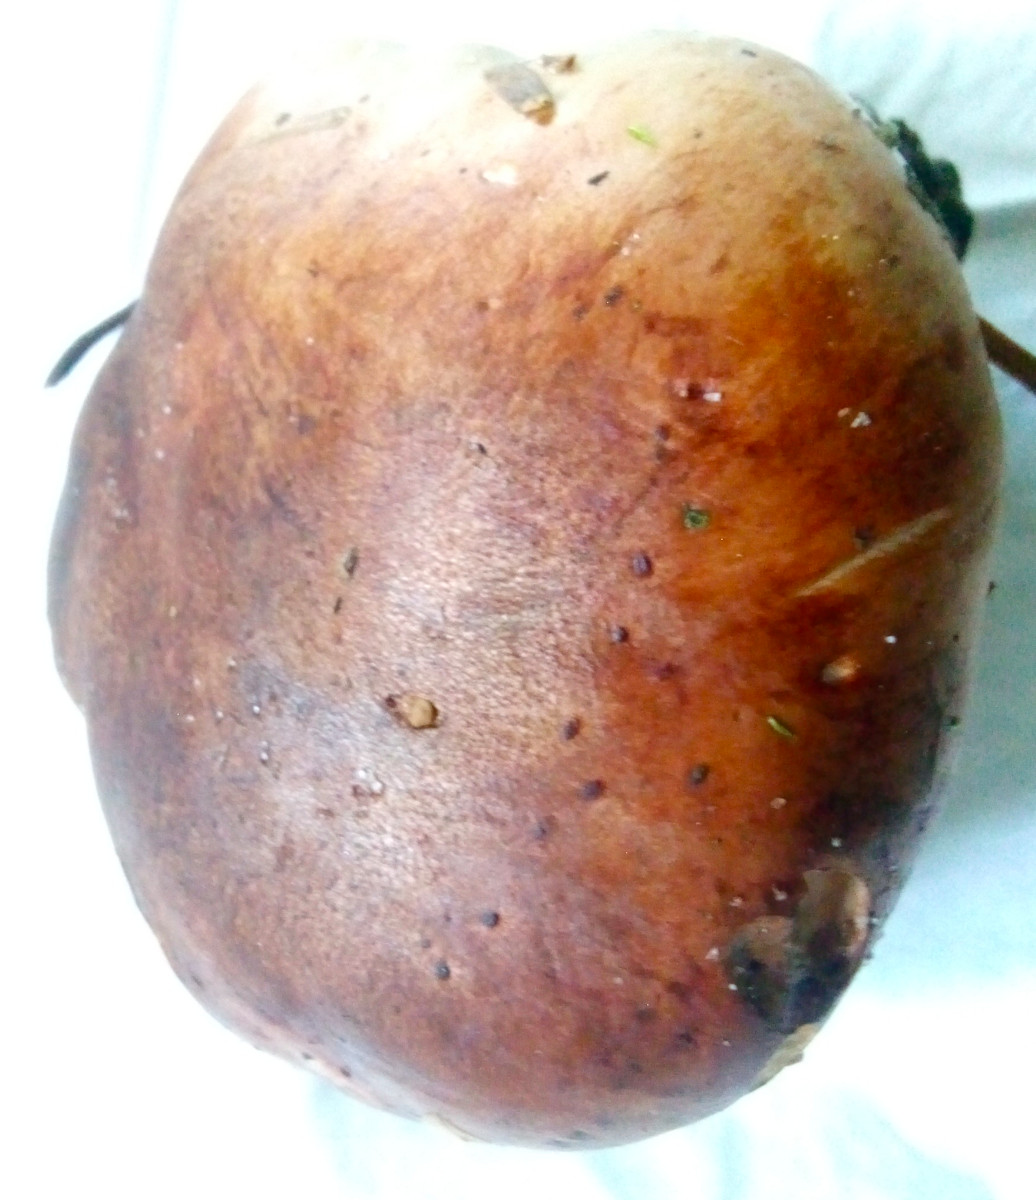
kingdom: Fungi
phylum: Basidiomycota
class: Agaricomycetes
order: Agaricales
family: Tricholomataceae
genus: Tricholoma
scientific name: Tricholoma pessundatum
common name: dråbeplettet ridderhat
